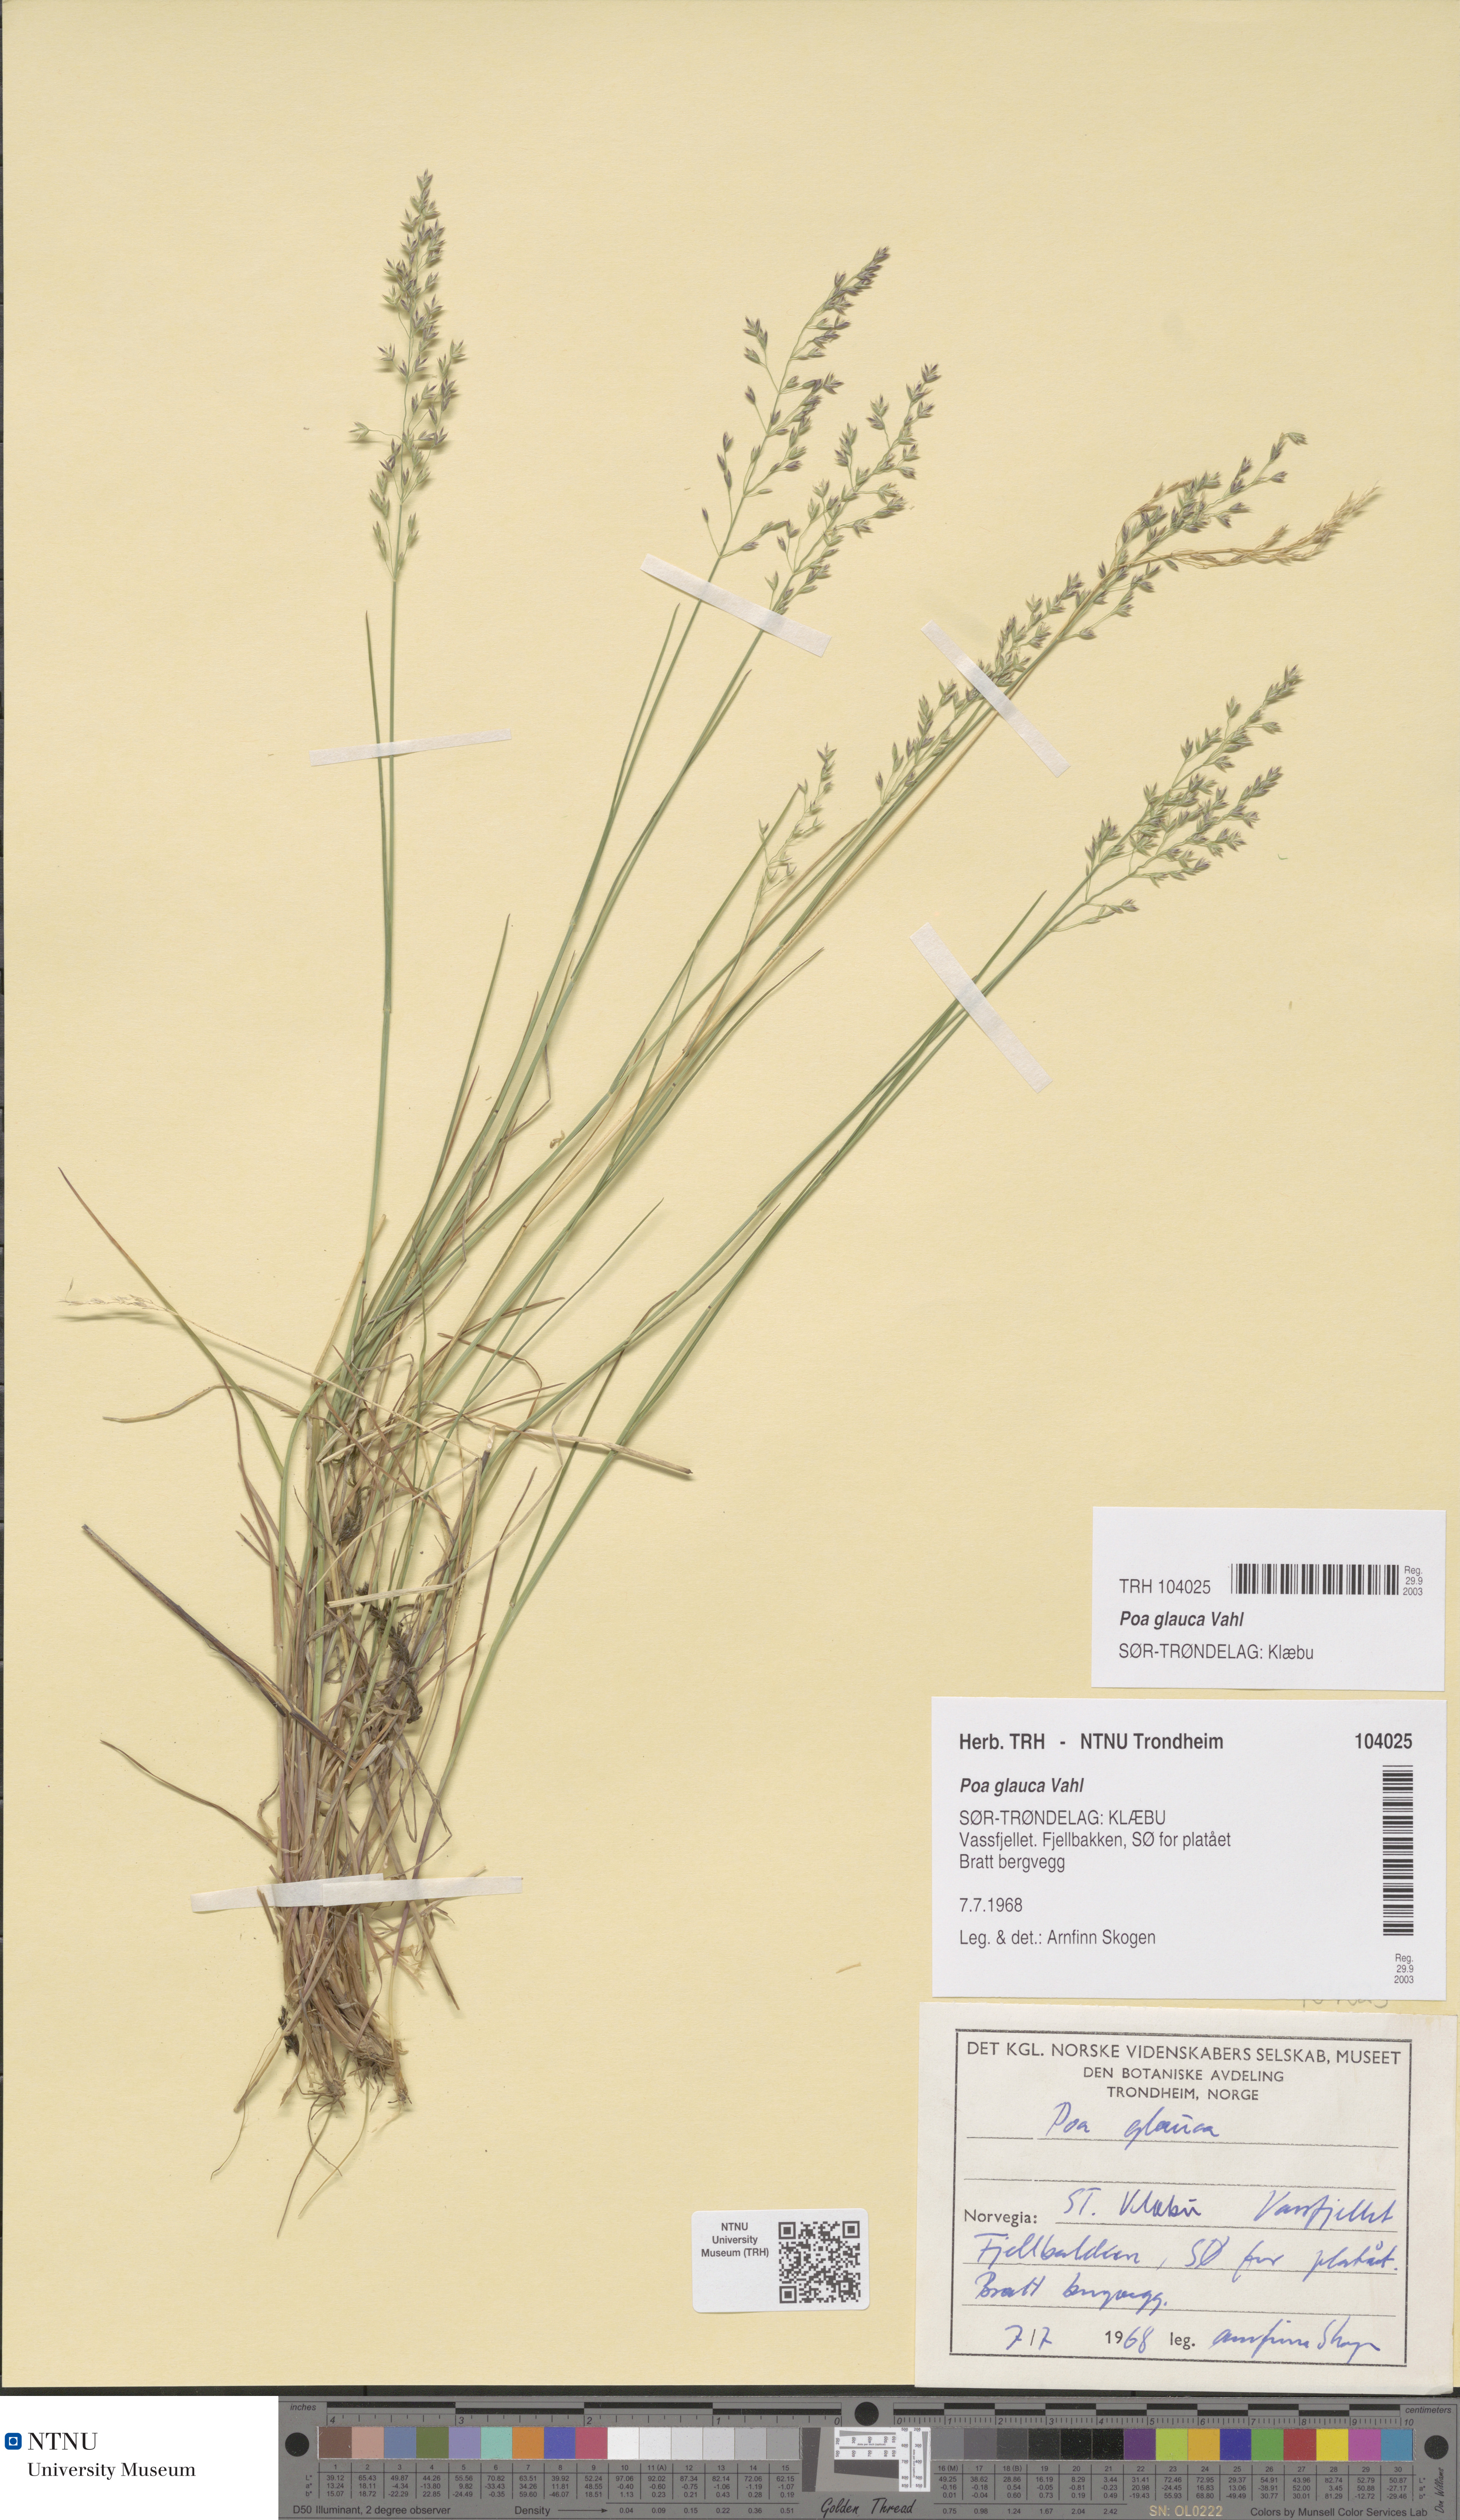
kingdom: Plantae
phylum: Tracheophyta
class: Liliopsida
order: Poales
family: Poaceae
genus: Poa
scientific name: Poa glauca
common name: Glaucous bluegrass
